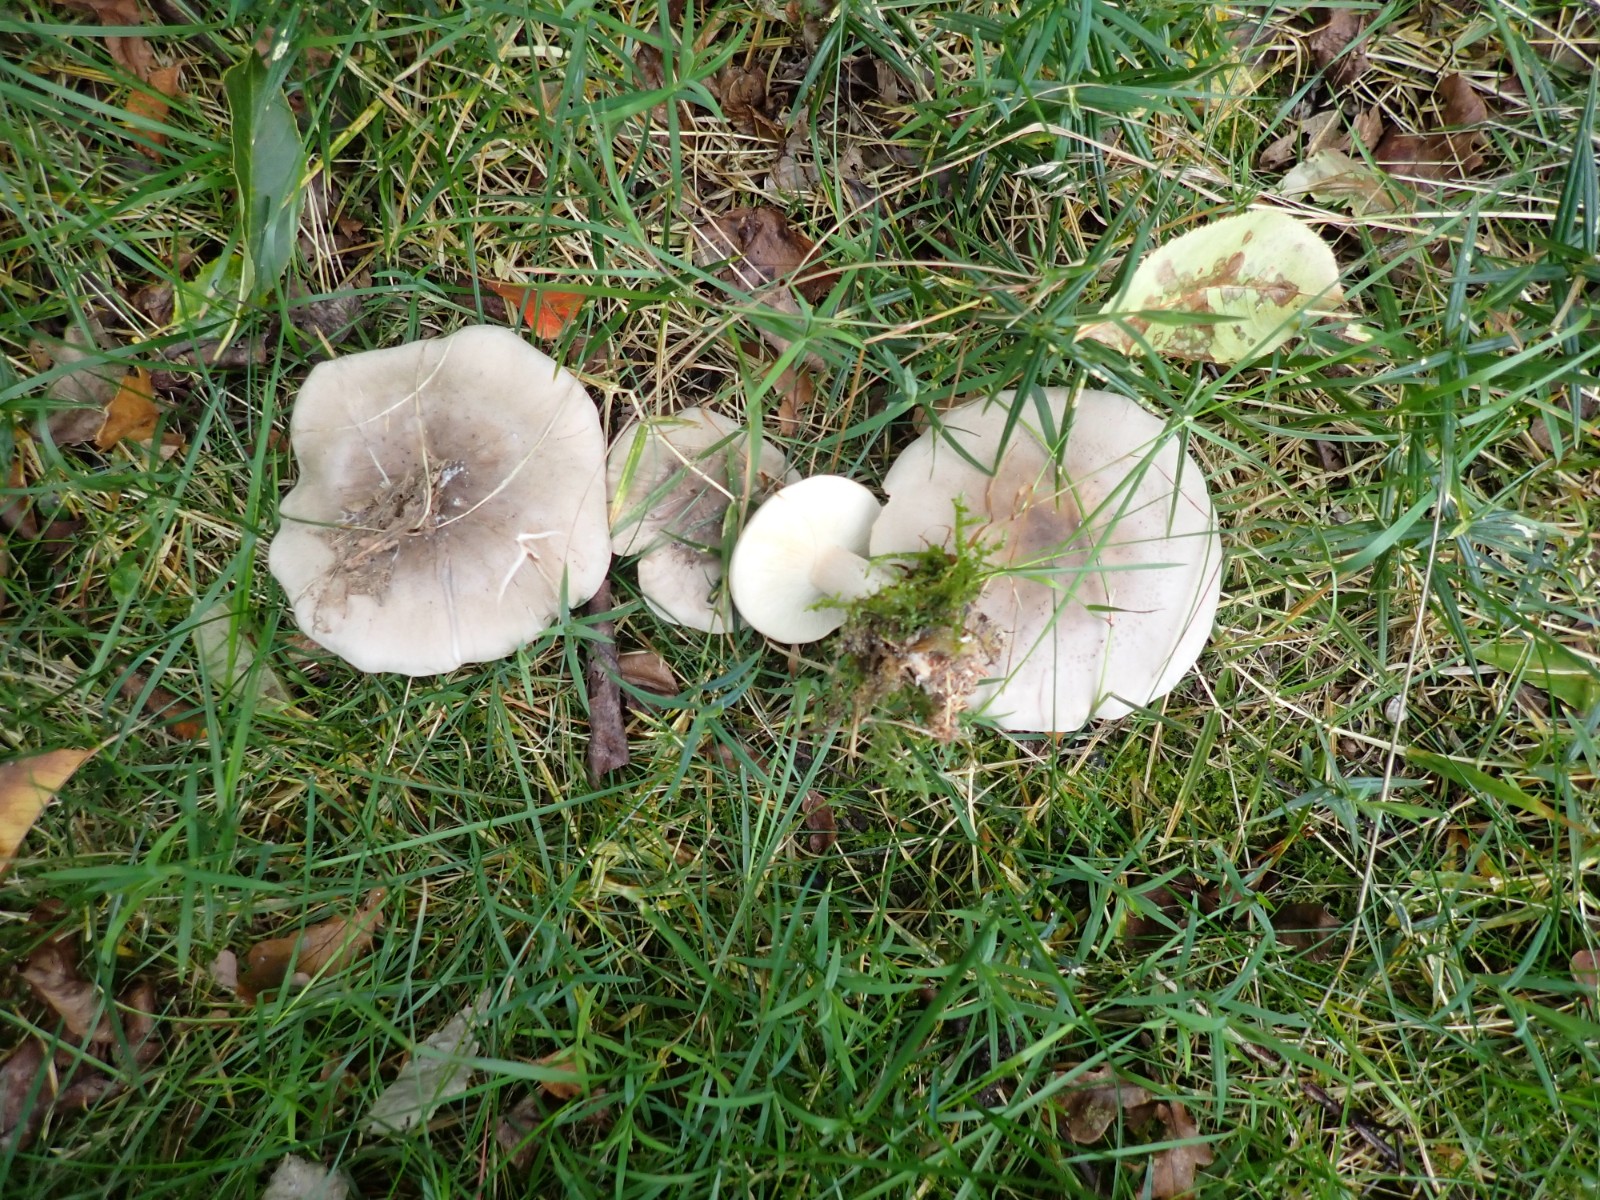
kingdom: Fungi
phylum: Basidiomycota
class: Agaricomycetes
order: Agaricales
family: Tricholomataceae
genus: Clitocybe
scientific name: Clitocybe nebularis
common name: tåge-tragthat
